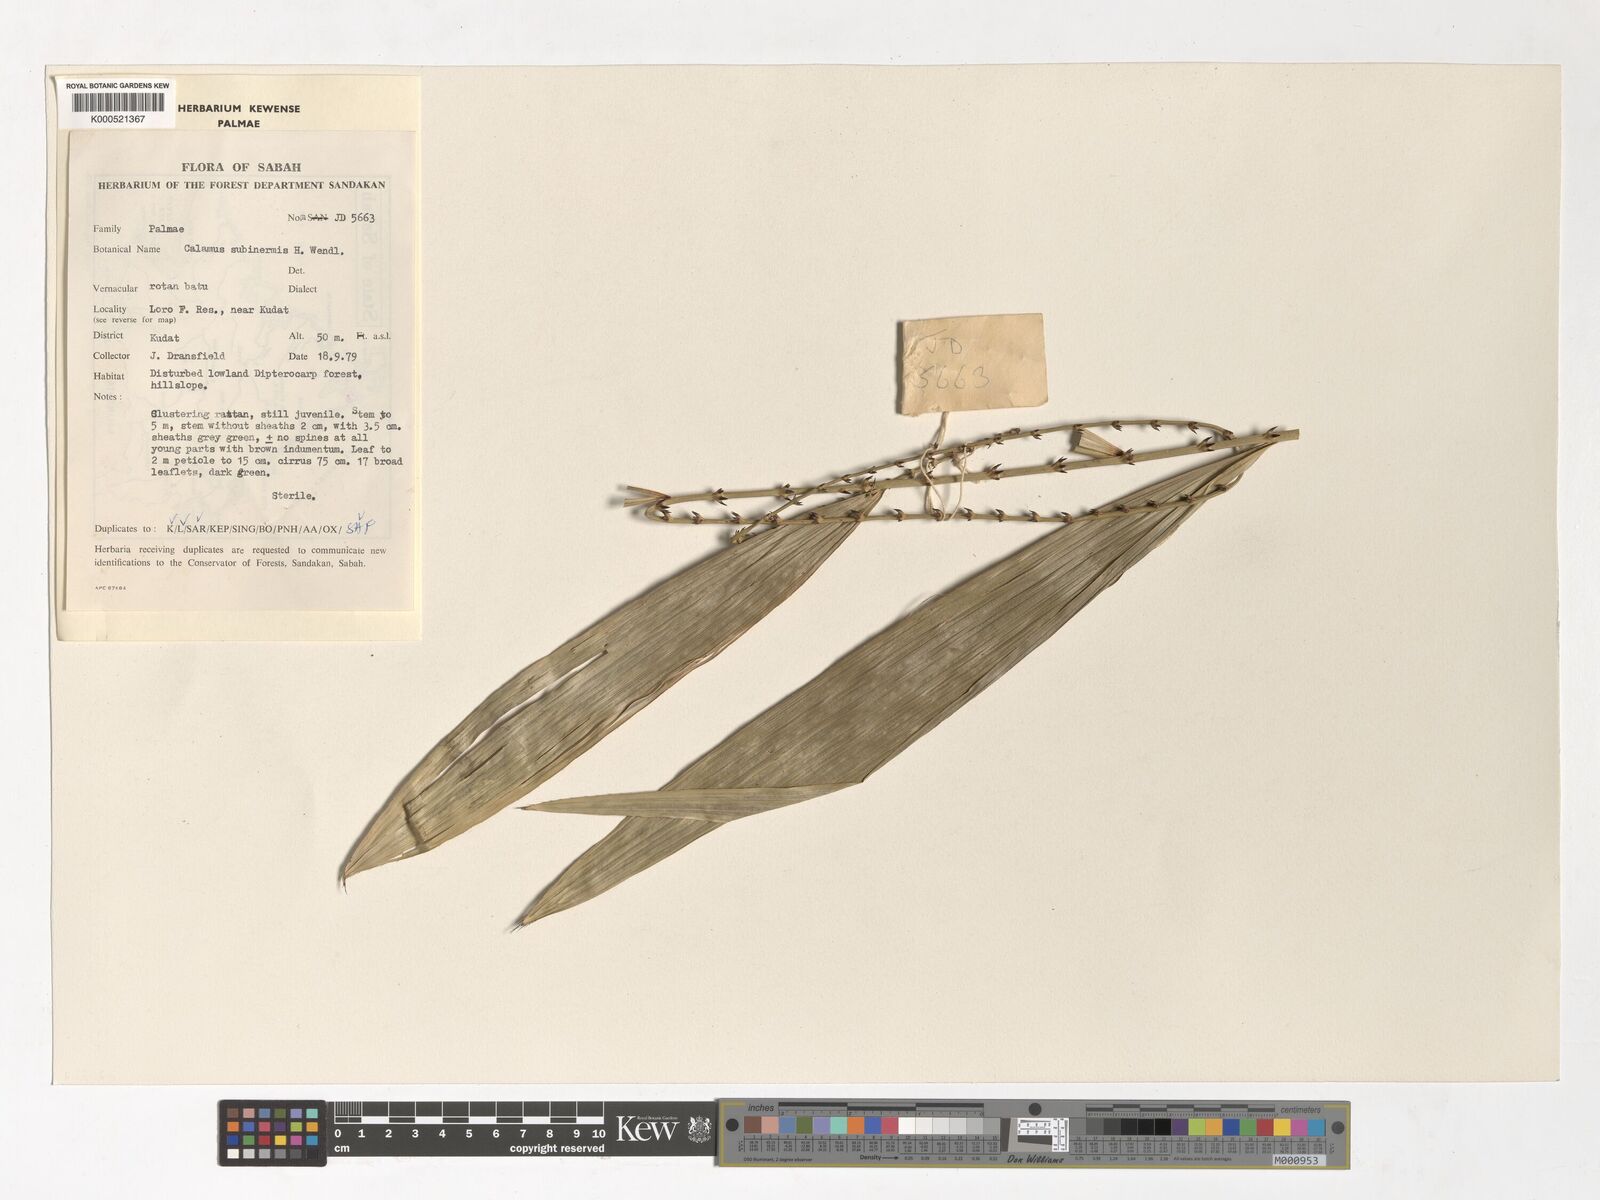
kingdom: Plantae
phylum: Tracheophyta
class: Liliopsida
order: Arecales
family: Arecaceae
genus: Calamus
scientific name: Calamus moseleyanus
